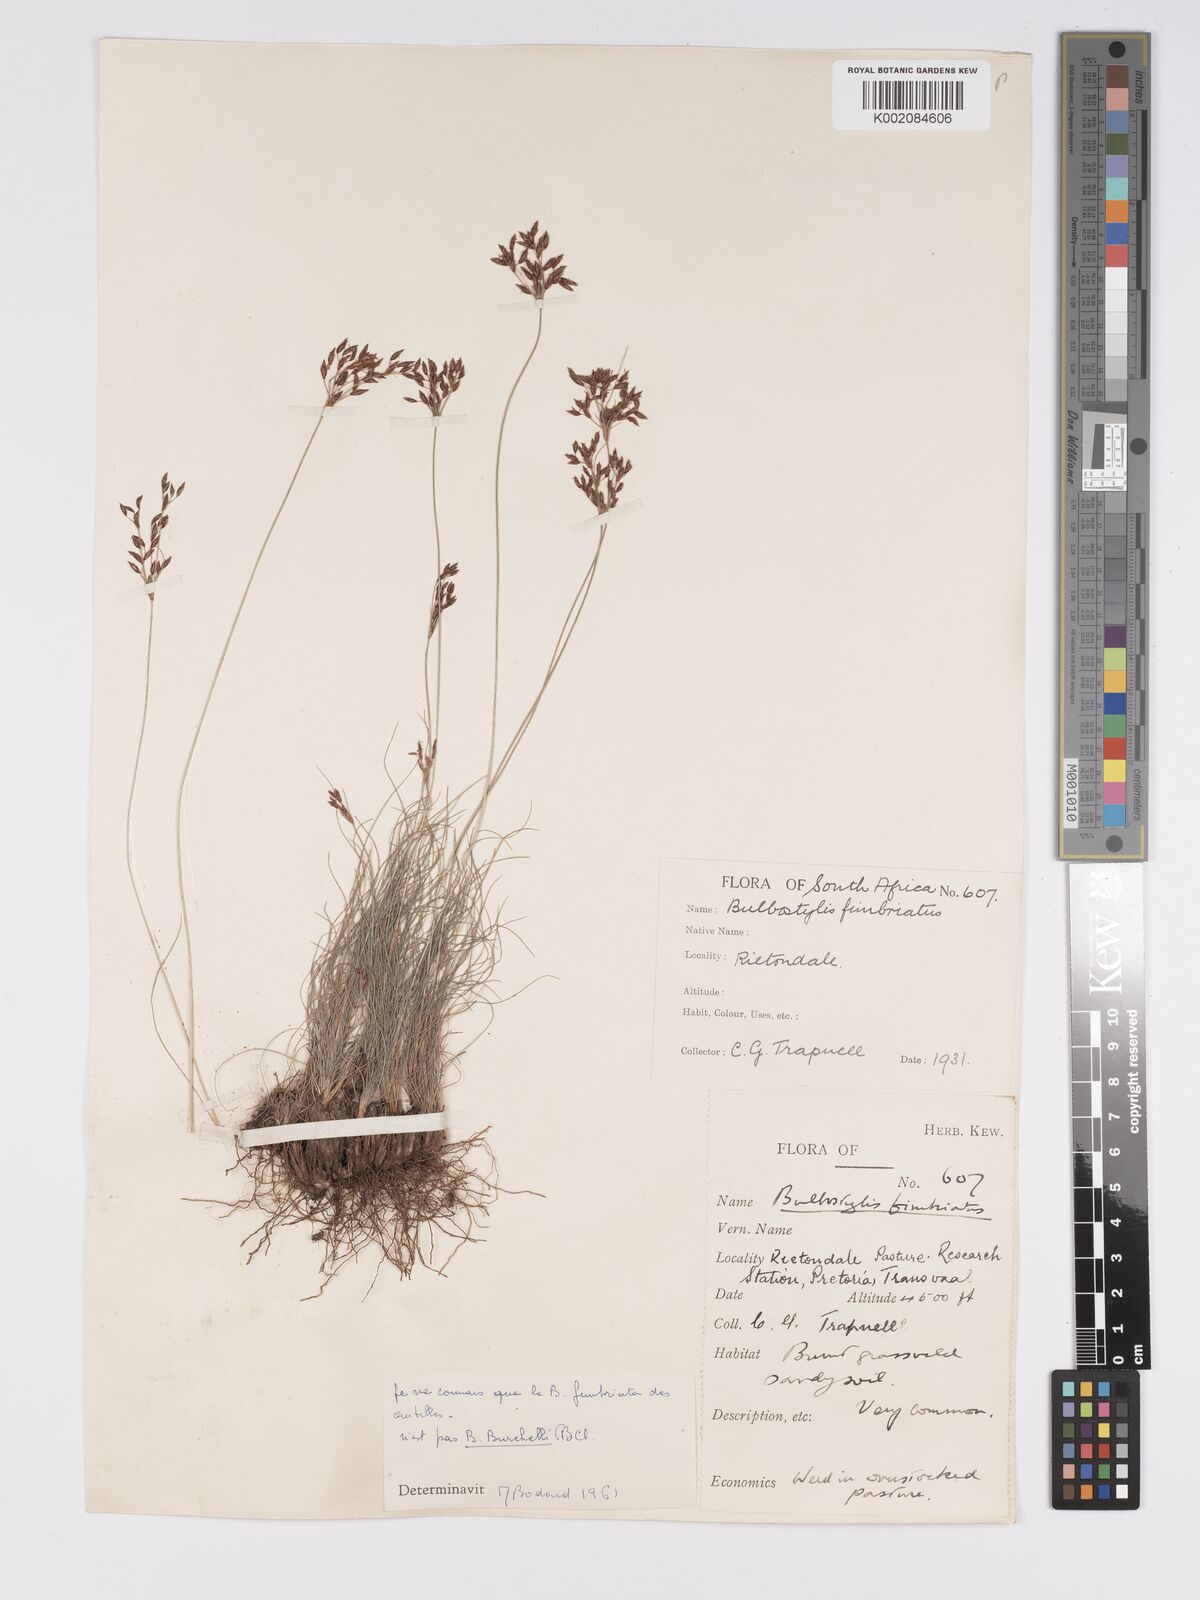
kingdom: Plantae
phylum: Tracheophyta
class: Liliopsida
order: Poales
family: Cyperaceae
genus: Bulbostylis
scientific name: Bulbostylis burchellii
